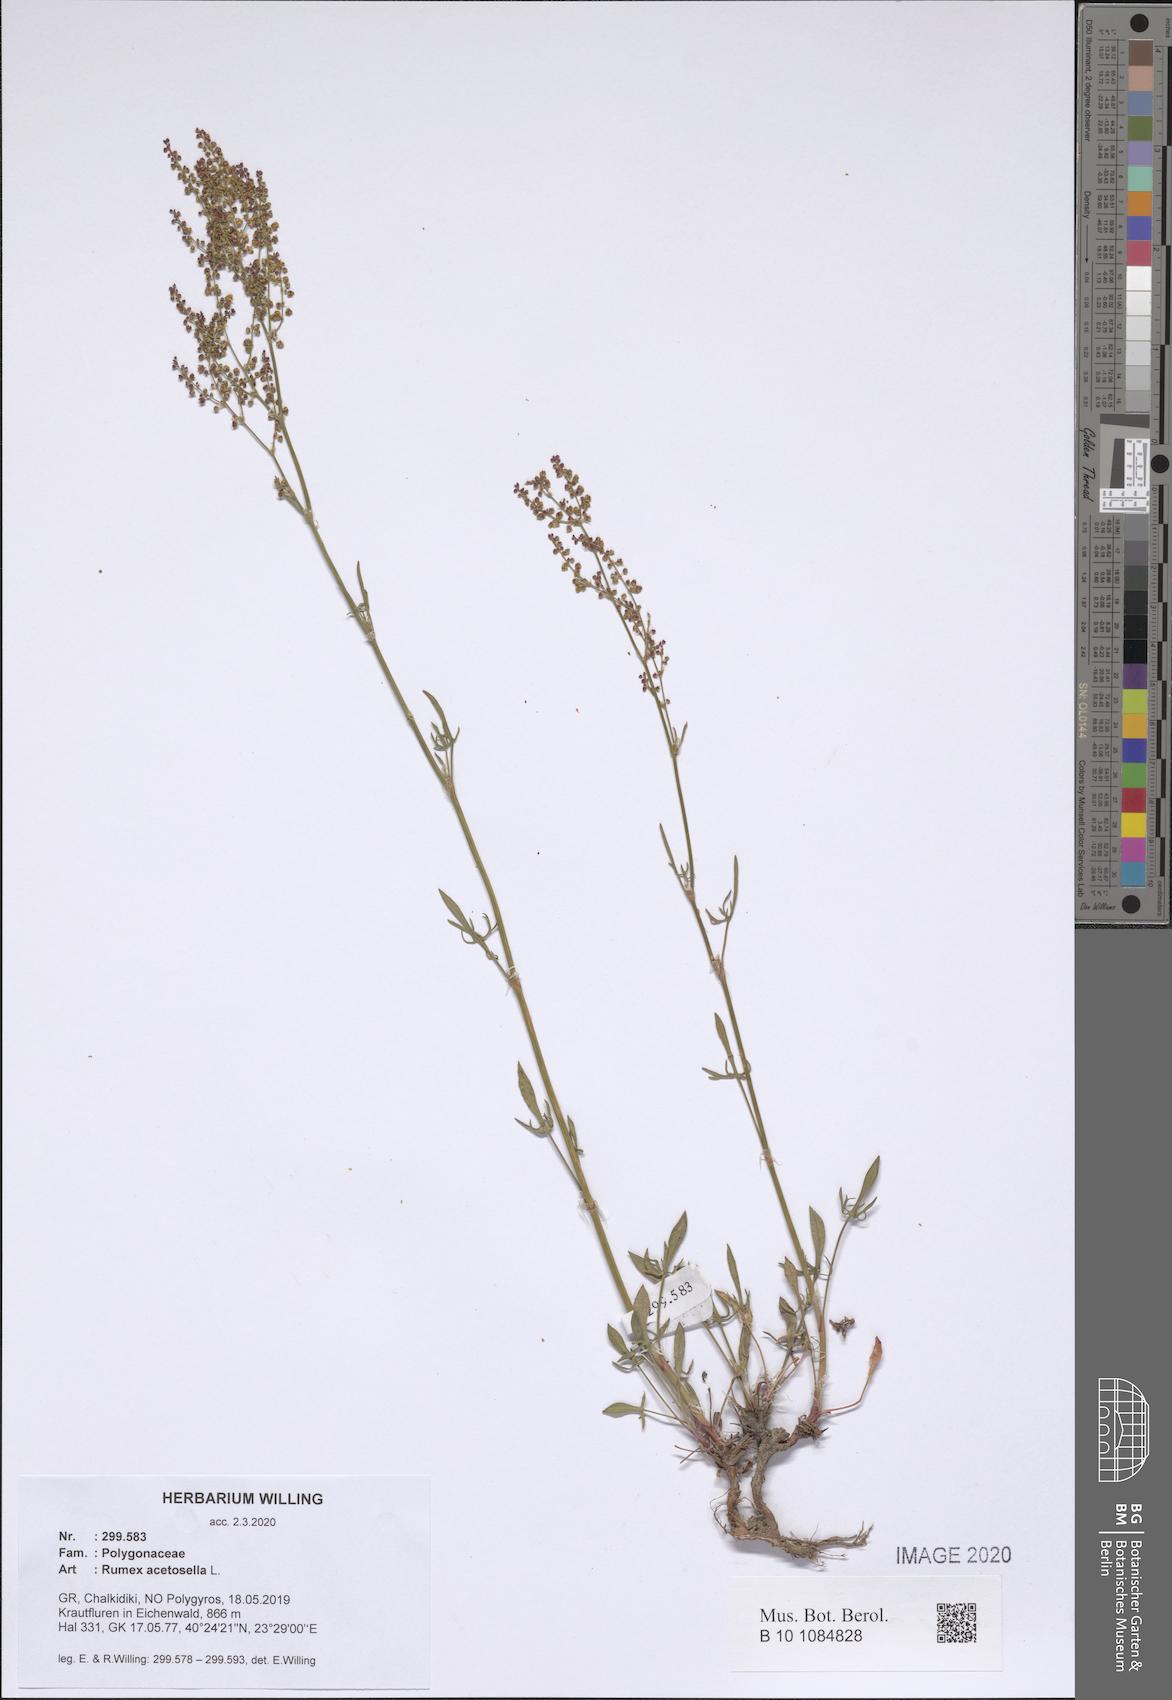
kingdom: Plantae
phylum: Tracheophyta
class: Magnoliopsida
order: Caryophyllales
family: Polygonaceae
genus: Rumex
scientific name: Rumex acetosella
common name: Common sheep sorrel
